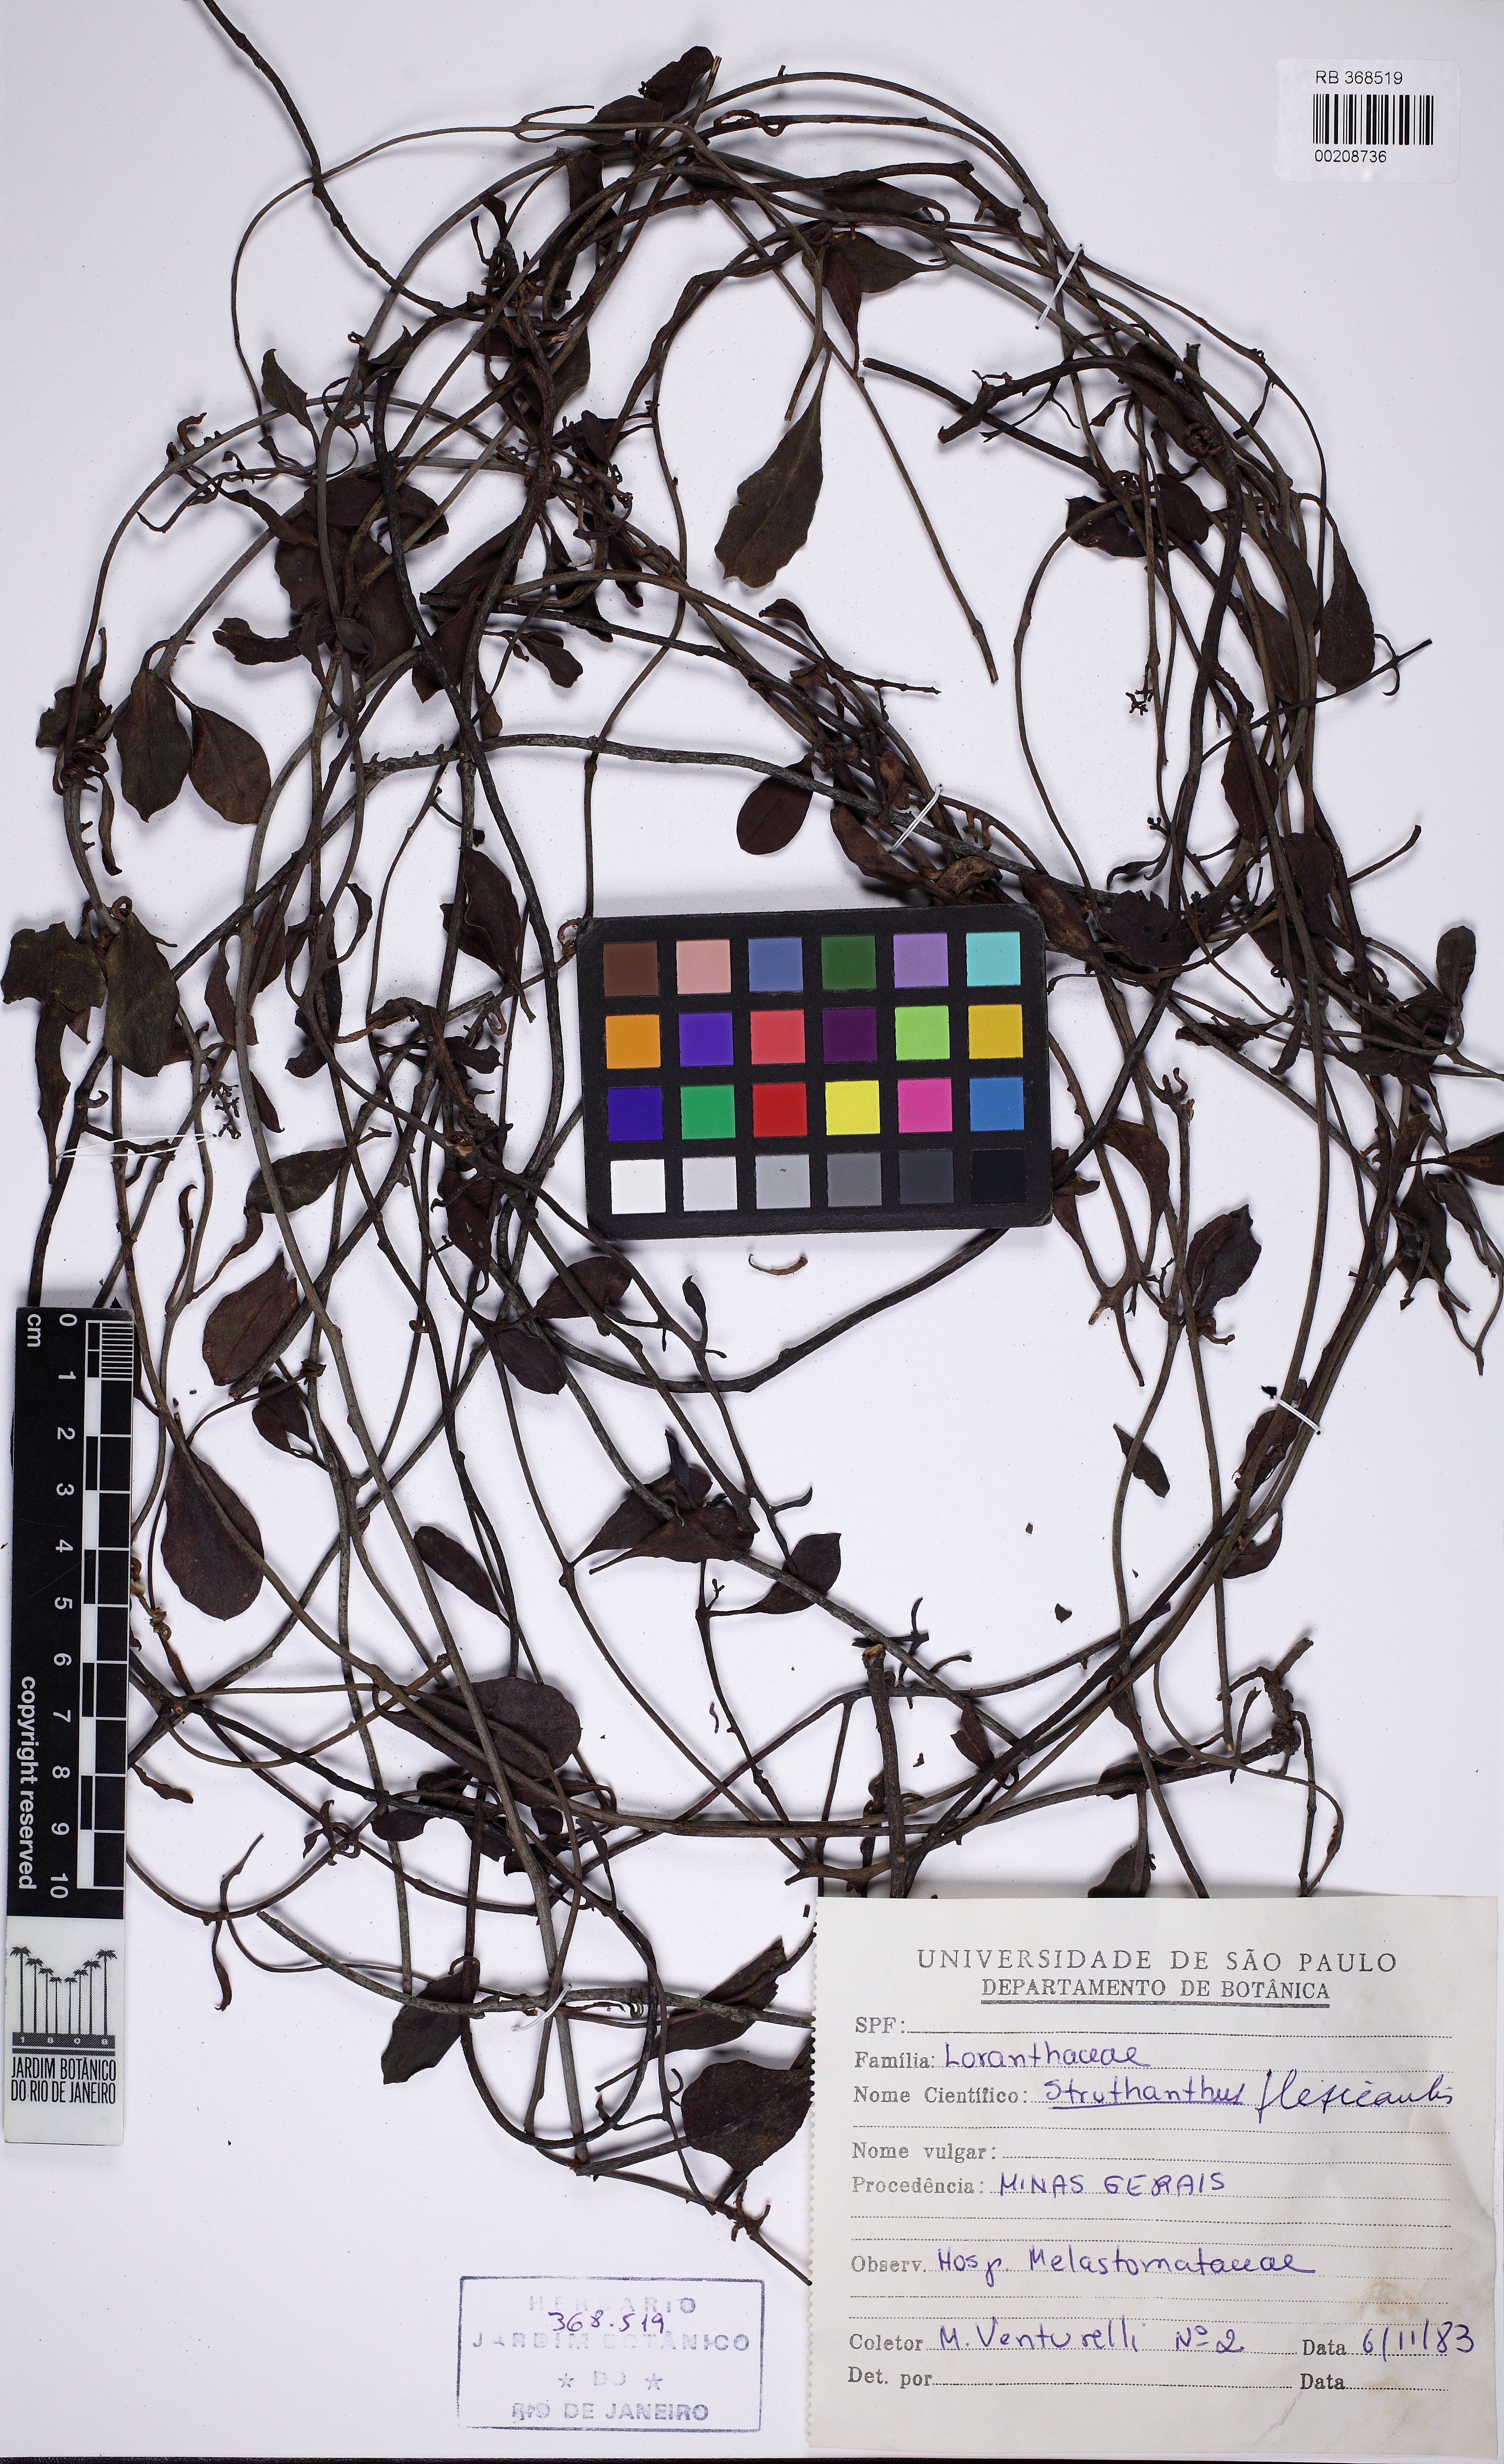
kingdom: Plantae
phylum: Tracheophyta
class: Magnoliopsida
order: Santalales
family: Loranthaceae
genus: Struthanthus
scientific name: Struthanthus flexicaulis
